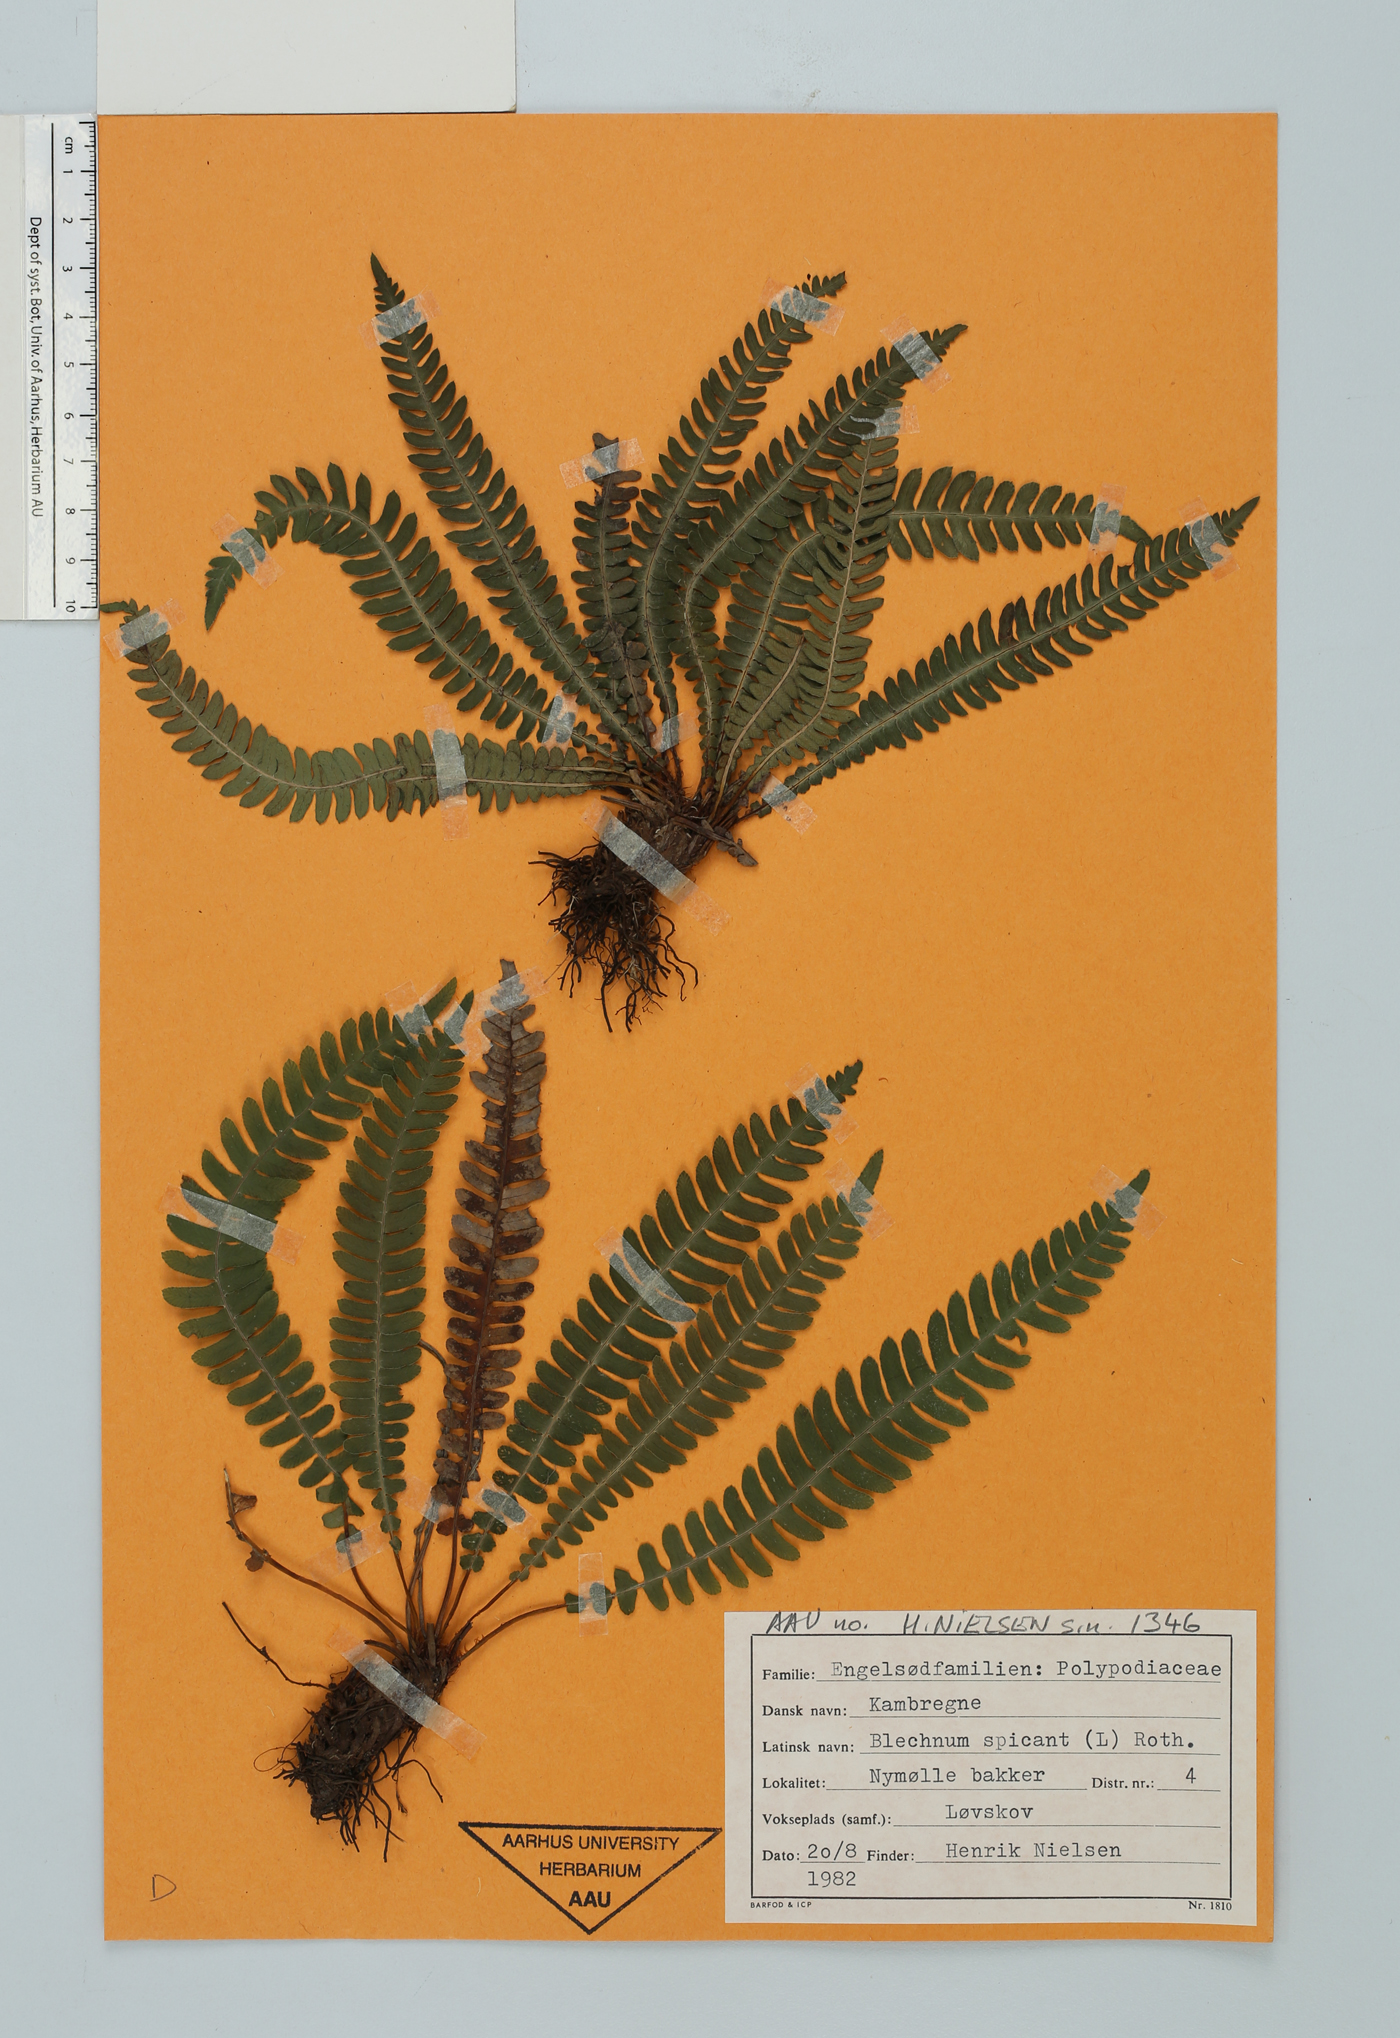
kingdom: Plantae
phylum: Tracheophyta
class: Polypodiopsida
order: Polypodiales
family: Blechnaceae
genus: Struthiopteris
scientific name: Struthiopteris spicant
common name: Deer fern
